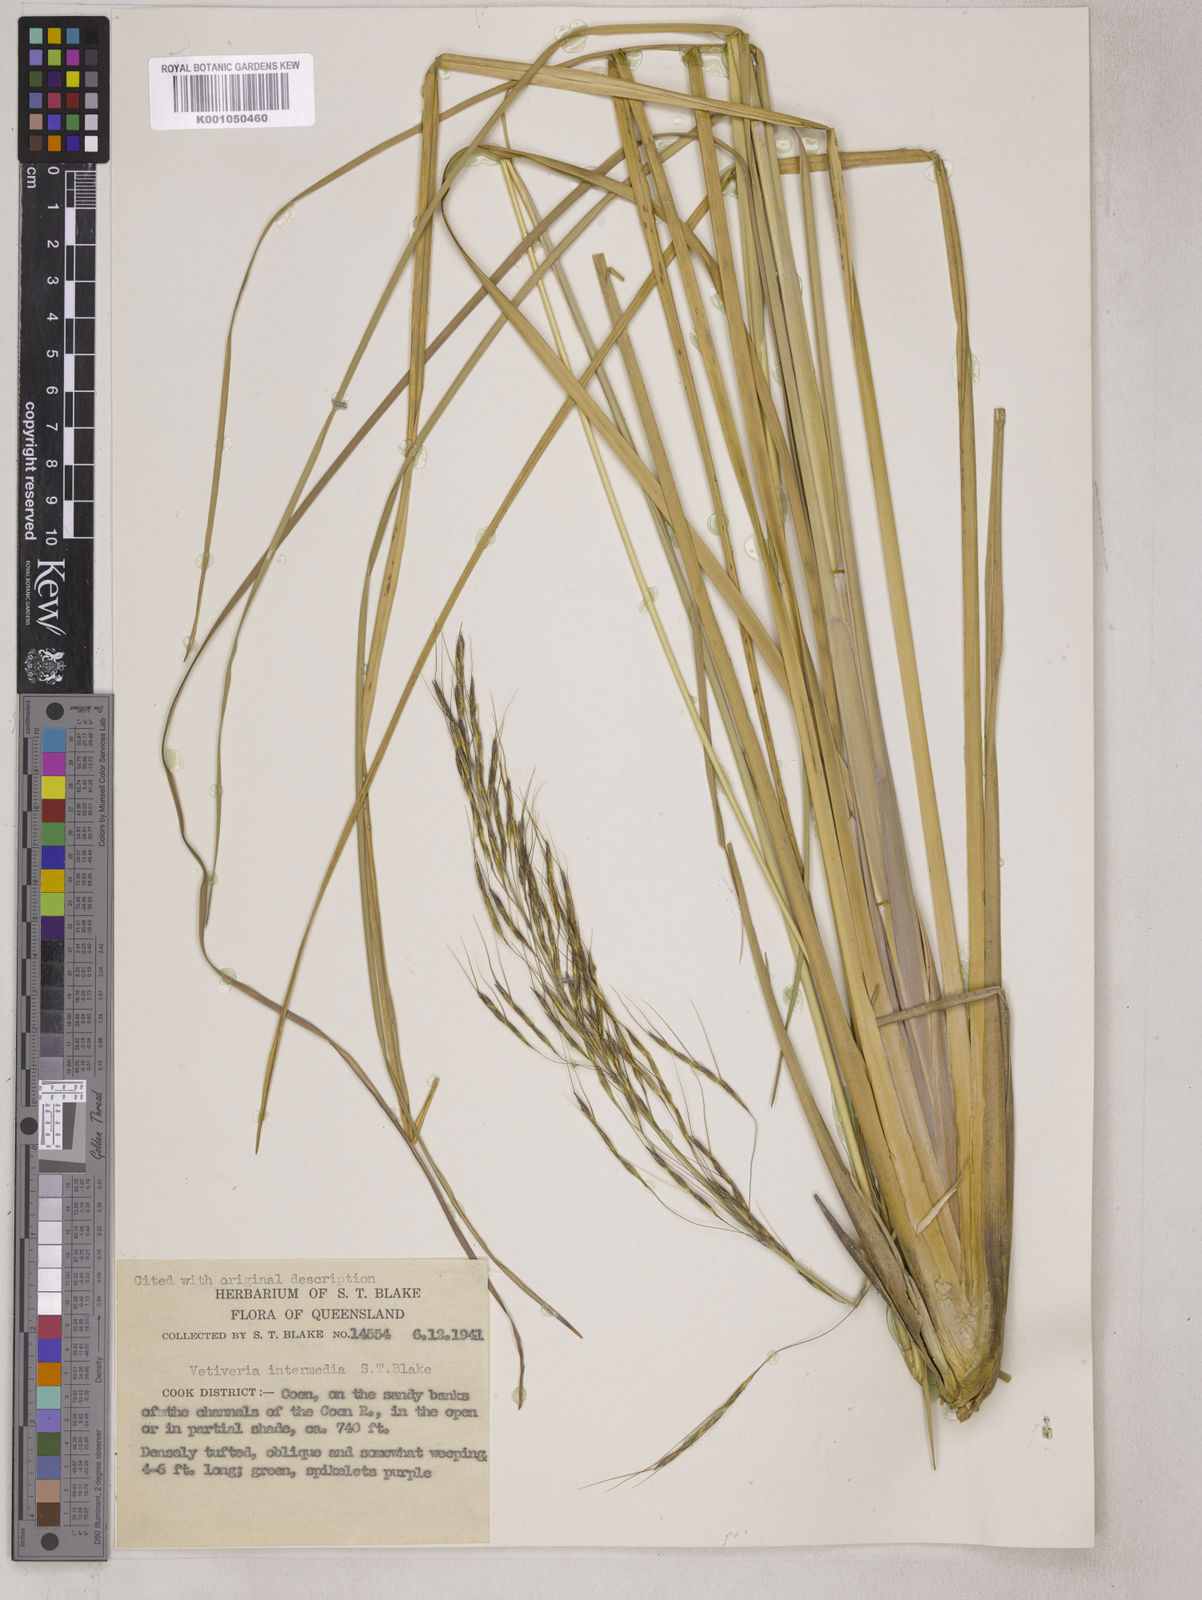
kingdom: Plantae
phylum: Tracheophyta
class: Liliopsida
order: Poales
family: Poaceae
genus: Chrysopogon
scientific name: Chrysopogon filipes
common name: Australian vetiver
